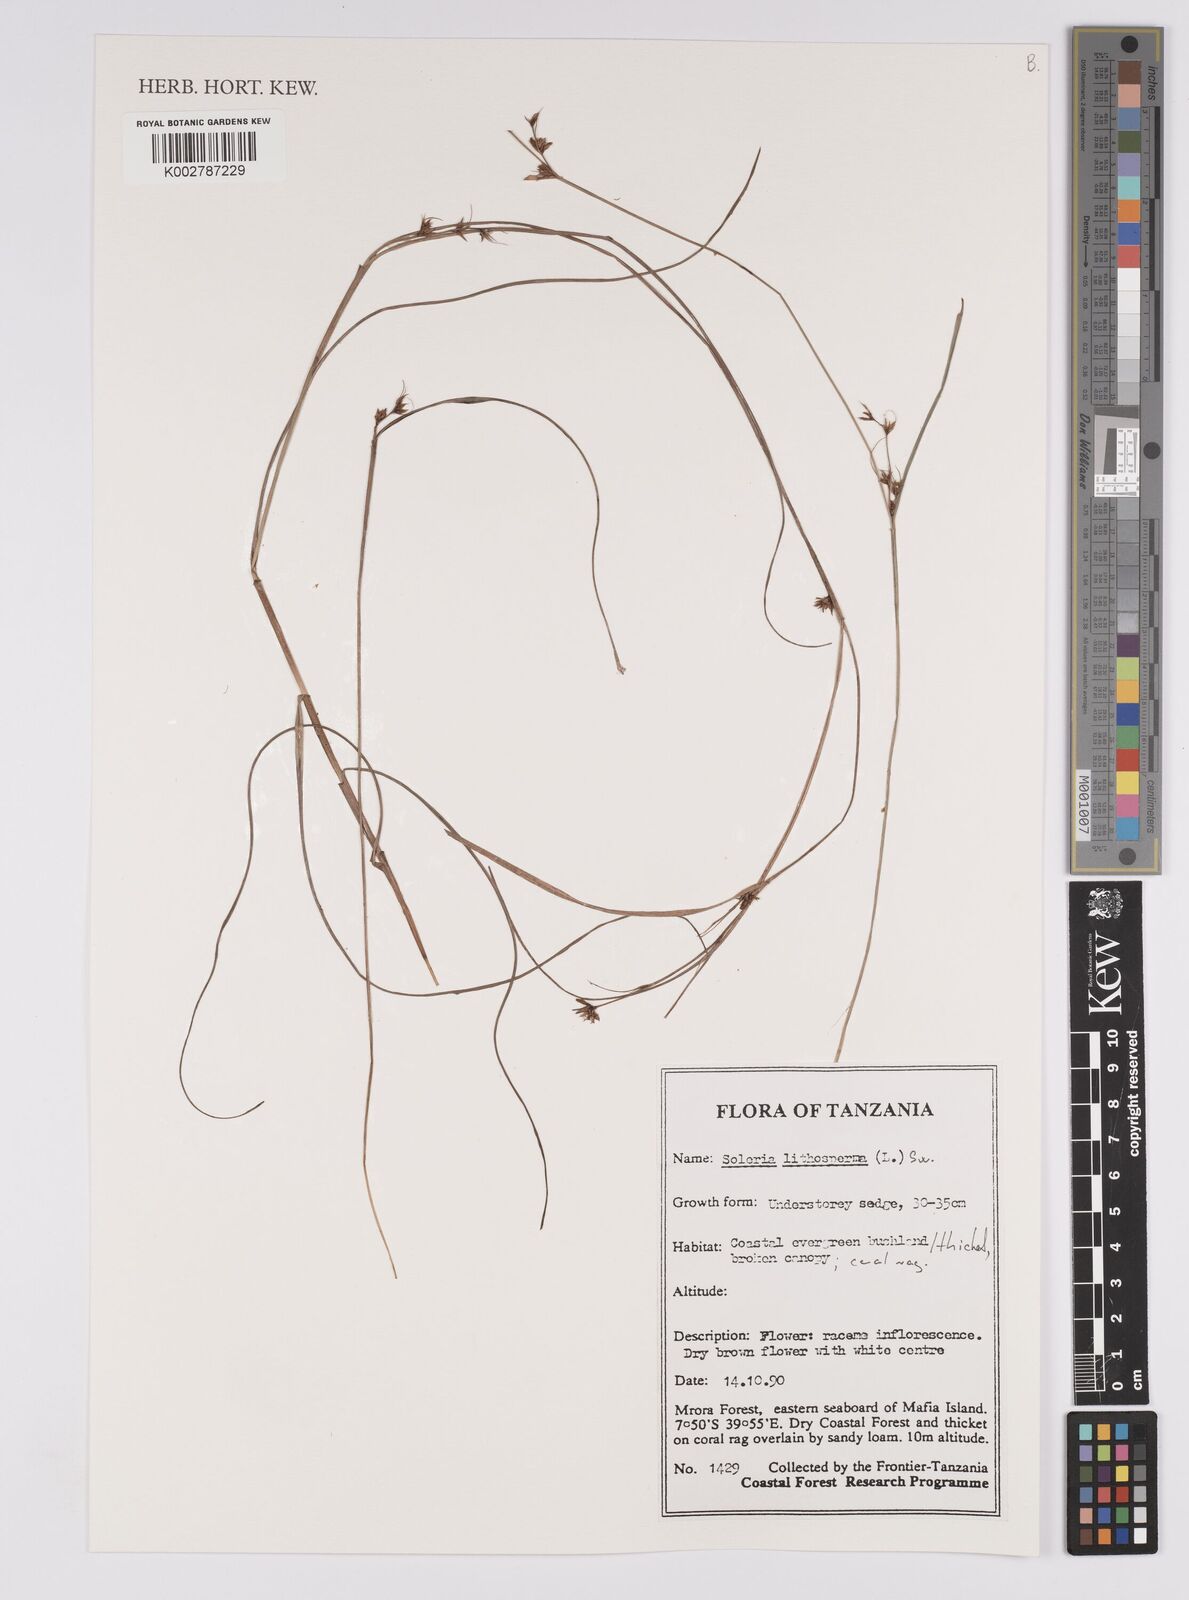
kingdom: Plantae
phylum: Tracheophyta
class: Liliopsida
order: Poales
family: Cyperaceae
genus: Scleria
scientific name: Scleria lithosperma
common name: Florida keys nut-rush
